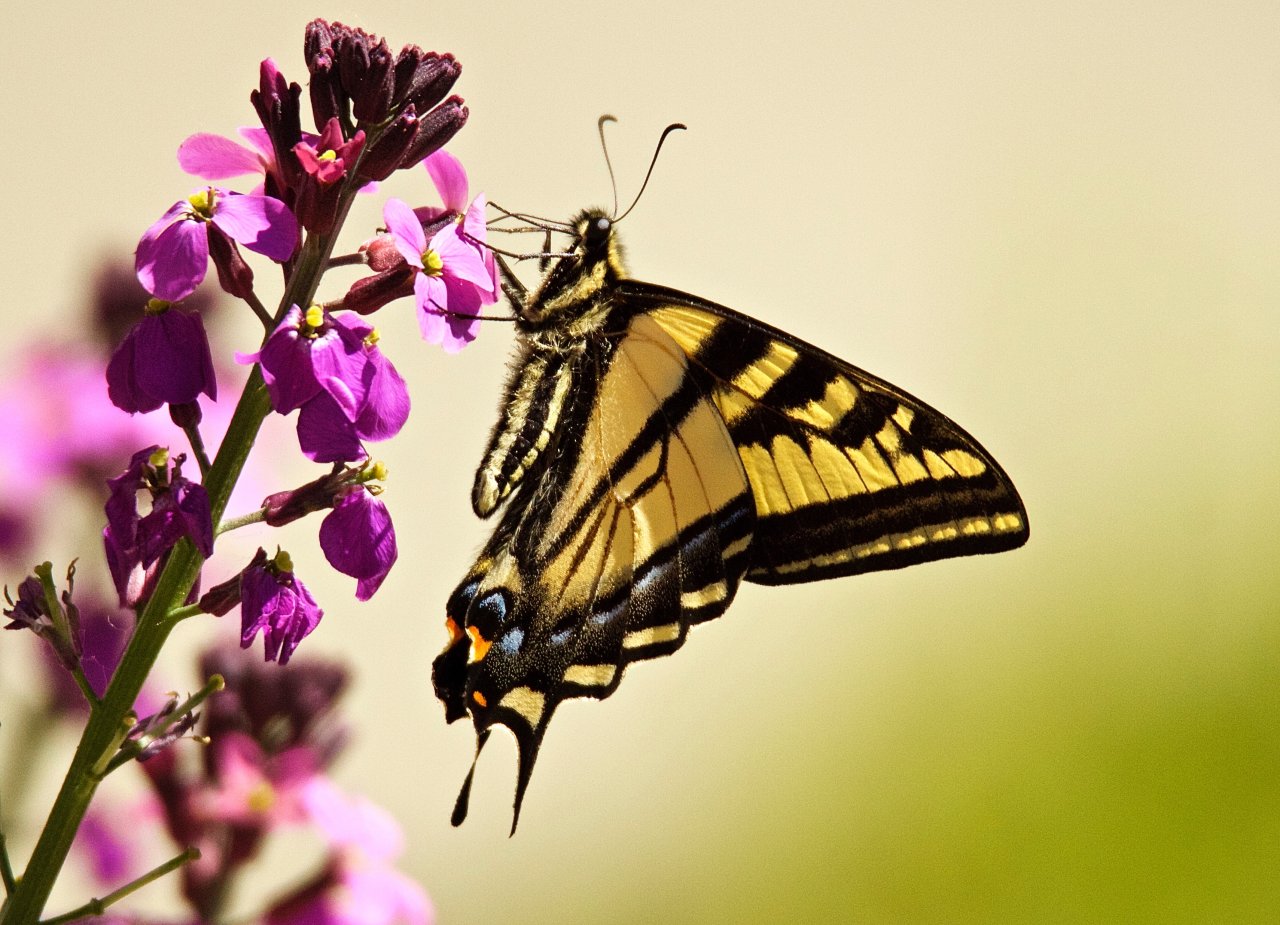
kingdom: Animalia
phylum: Arthropoda
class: Insecta
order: Lepidoptera
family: Papilionidae
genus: Pterourus
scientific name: Pterourus rutulus
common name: Western Tiger Swallowtail
